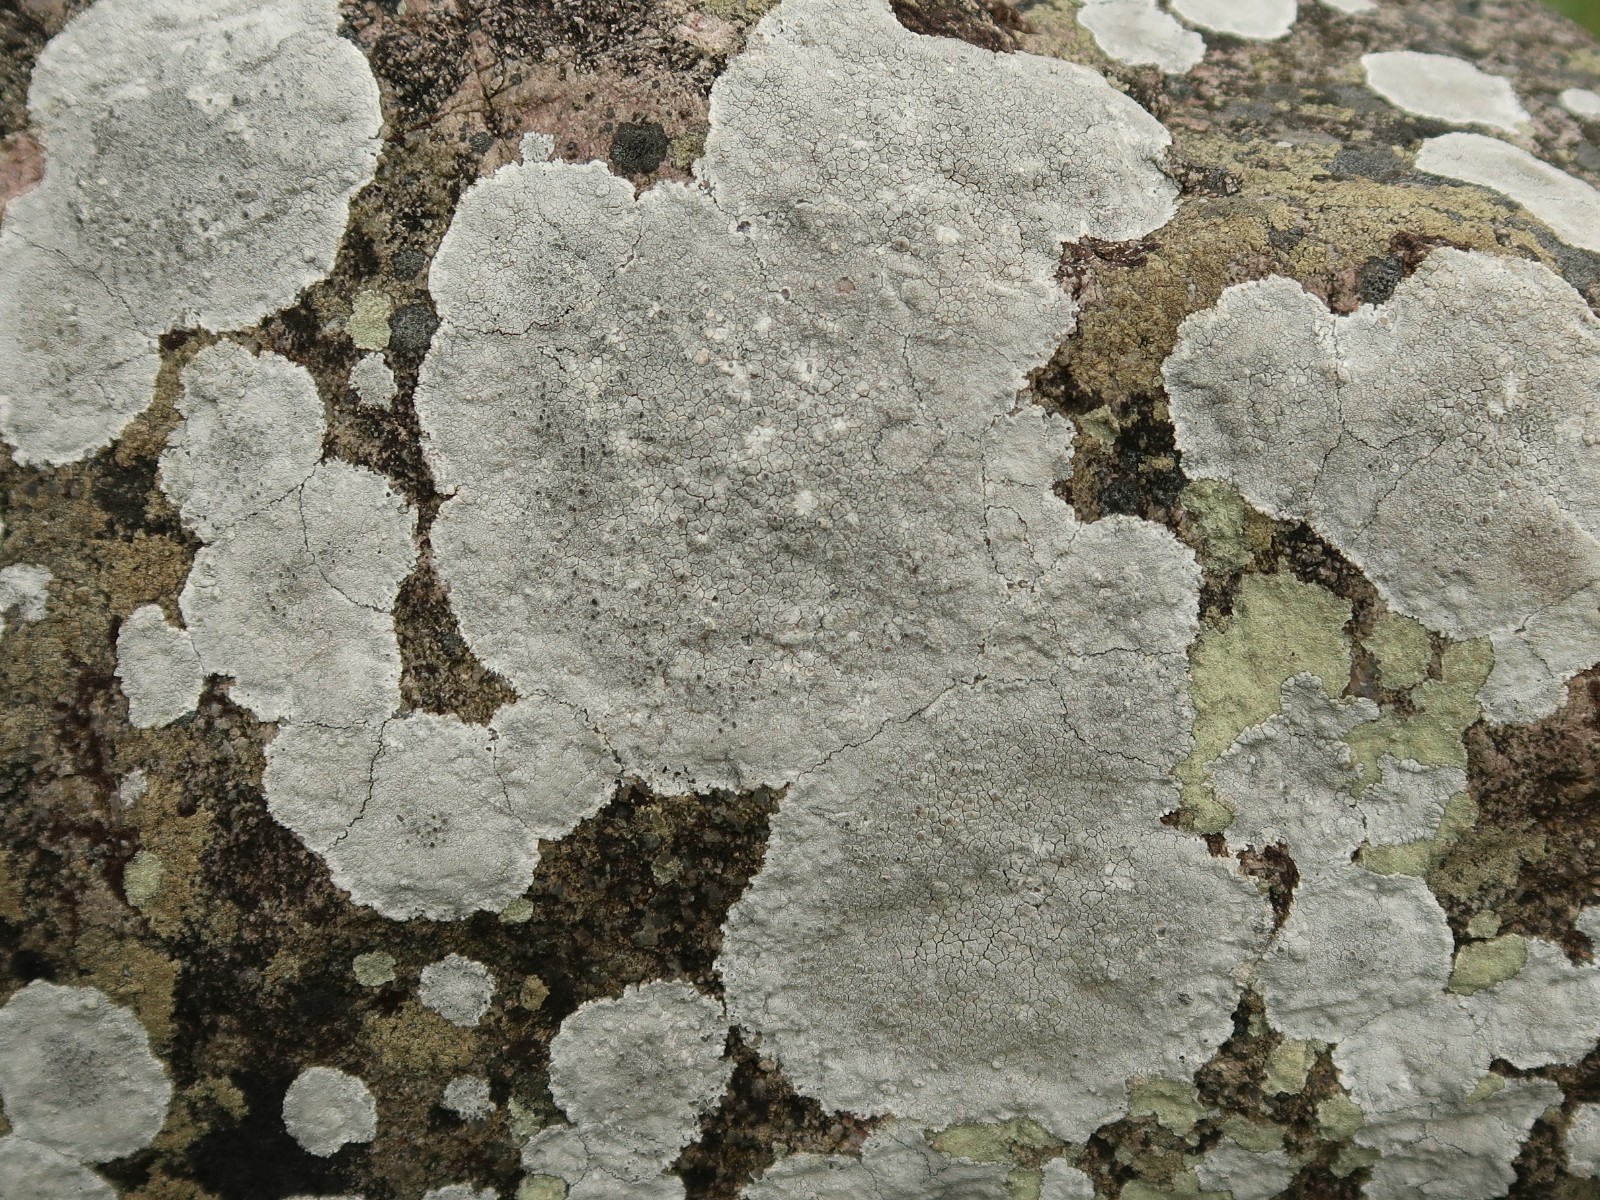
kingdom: Fungi
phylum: Ascomycota
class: Lecanoromycetes
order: Lecanorales
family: Lecanoraceae
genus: Glaucomaria
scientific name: Glaucomaria rupicola
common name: stengærde-kantskivelav
